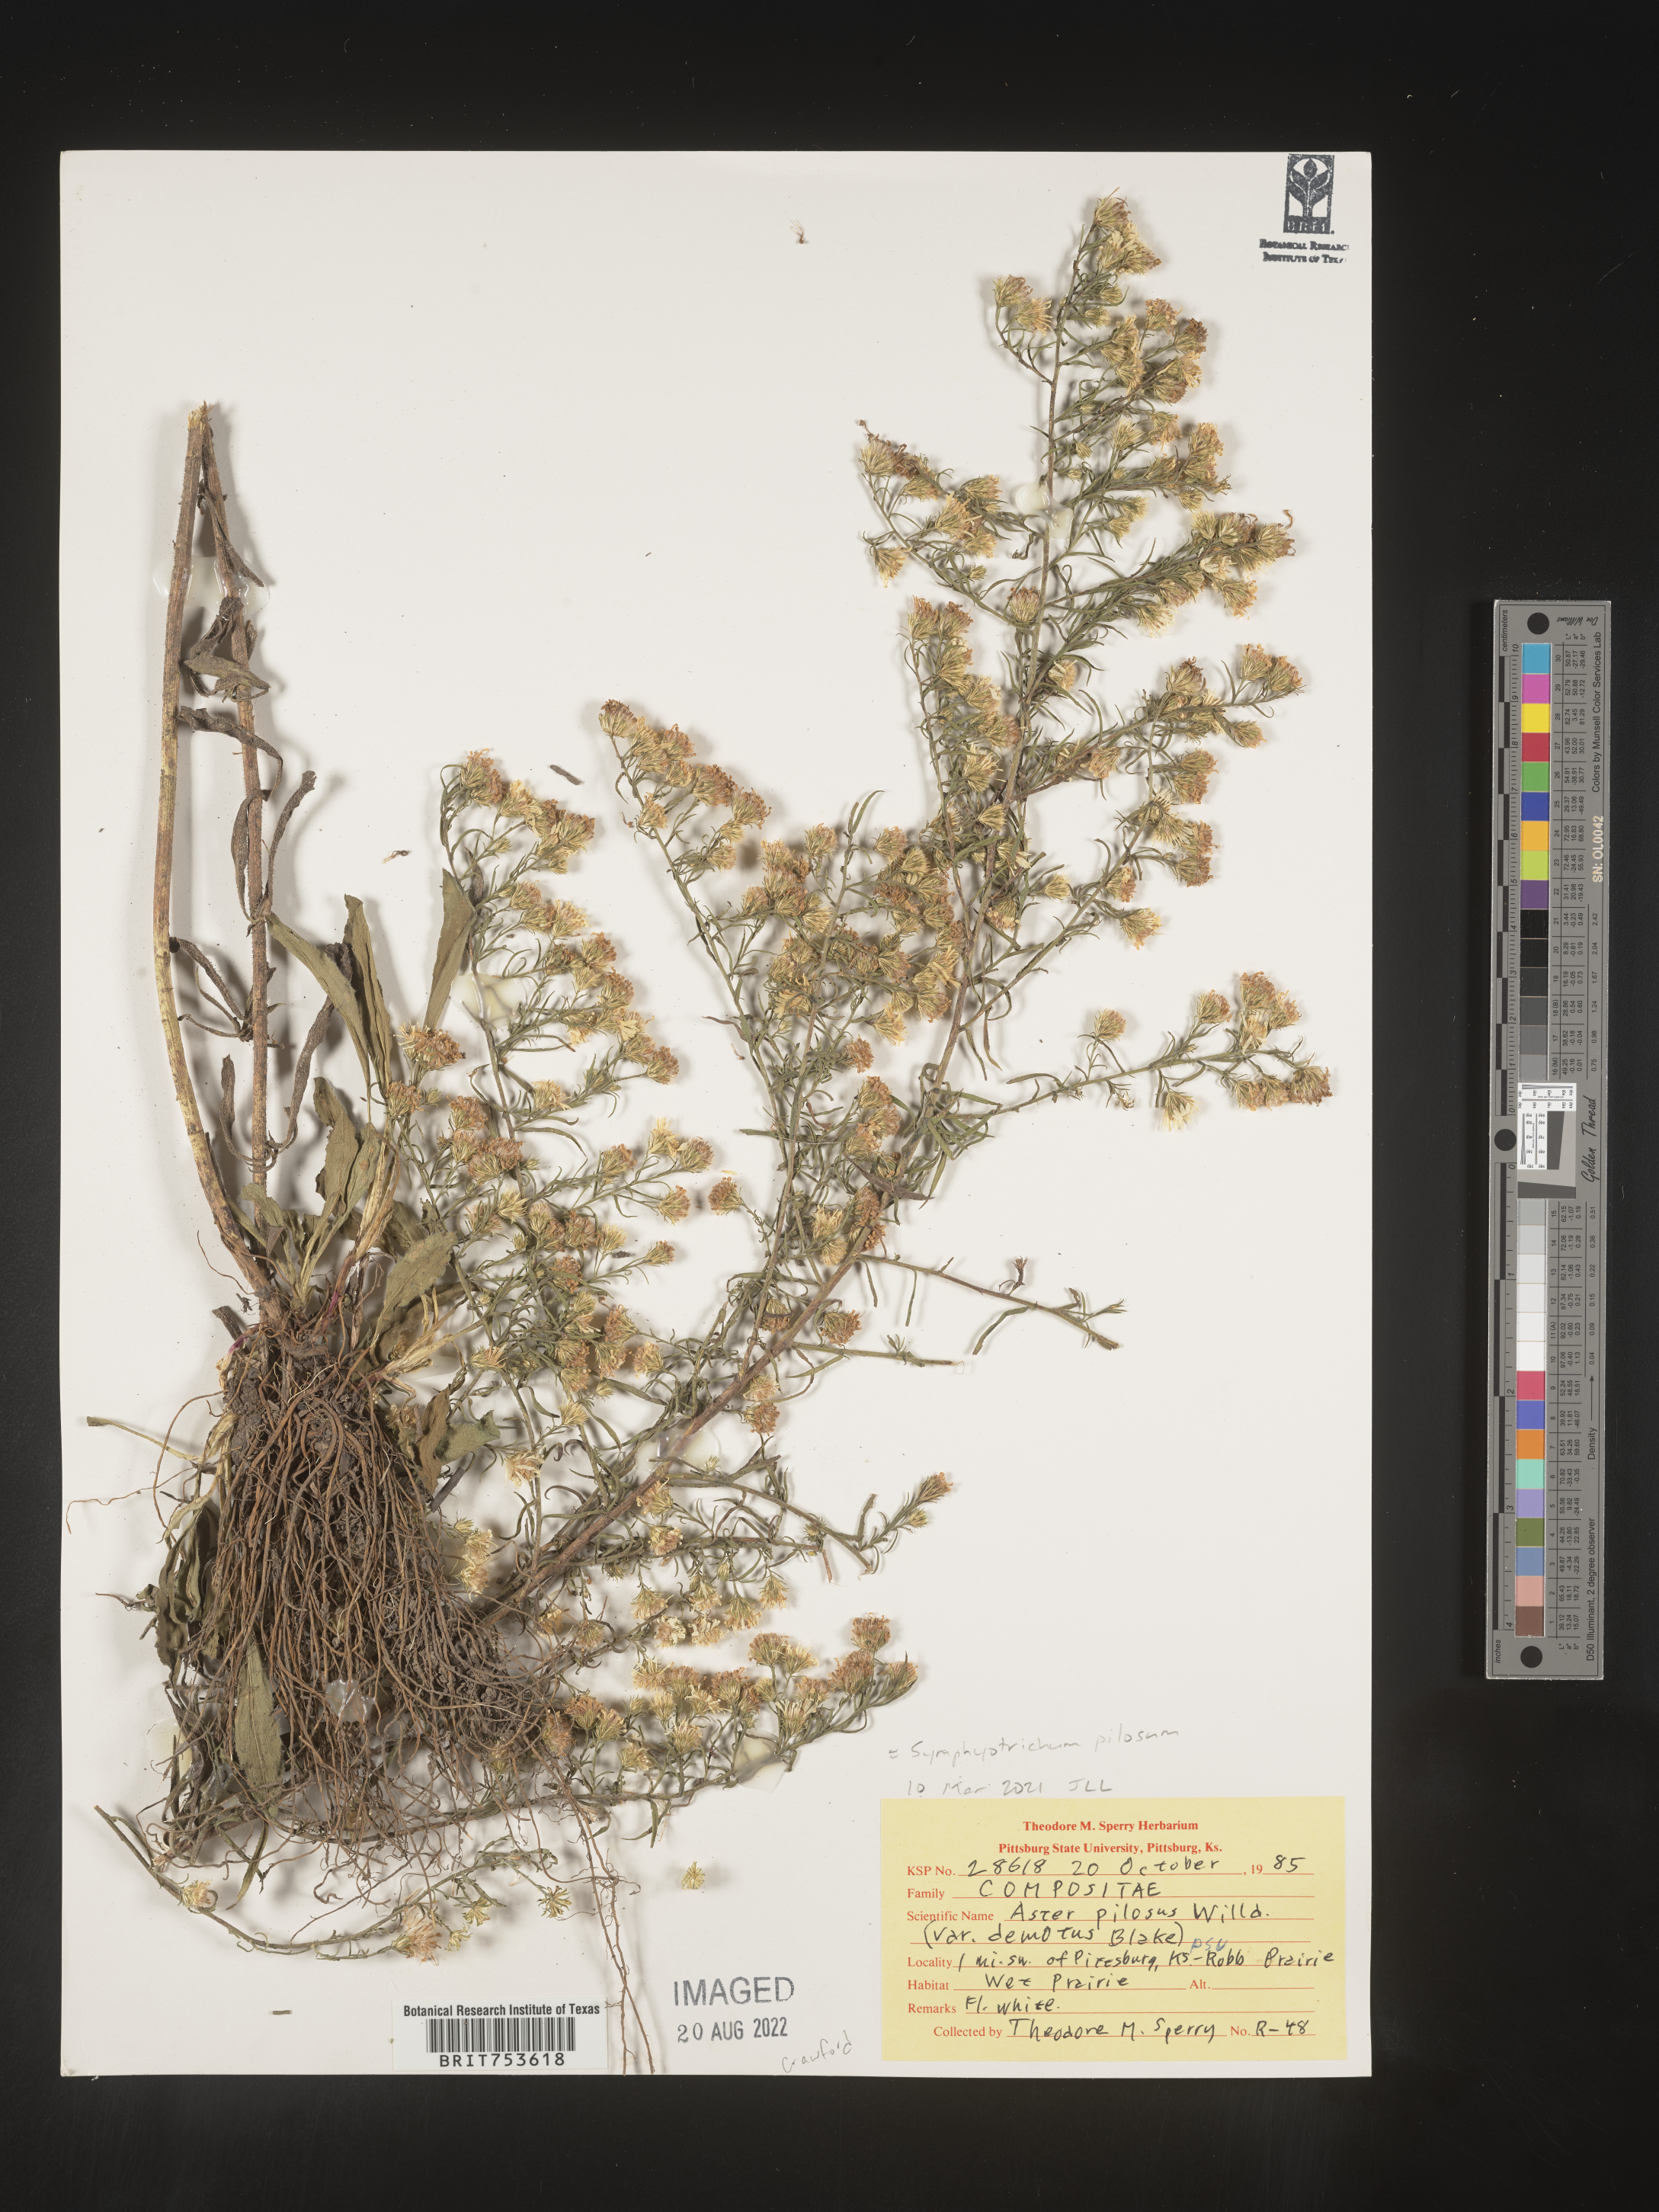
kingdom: Plantae
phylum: Tracheophyta
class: Magnoliopsida
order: Asterales
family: Asteraceae
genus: Symphyotrichum
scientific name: Symphyotrichum pilosum
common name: Awl aster
